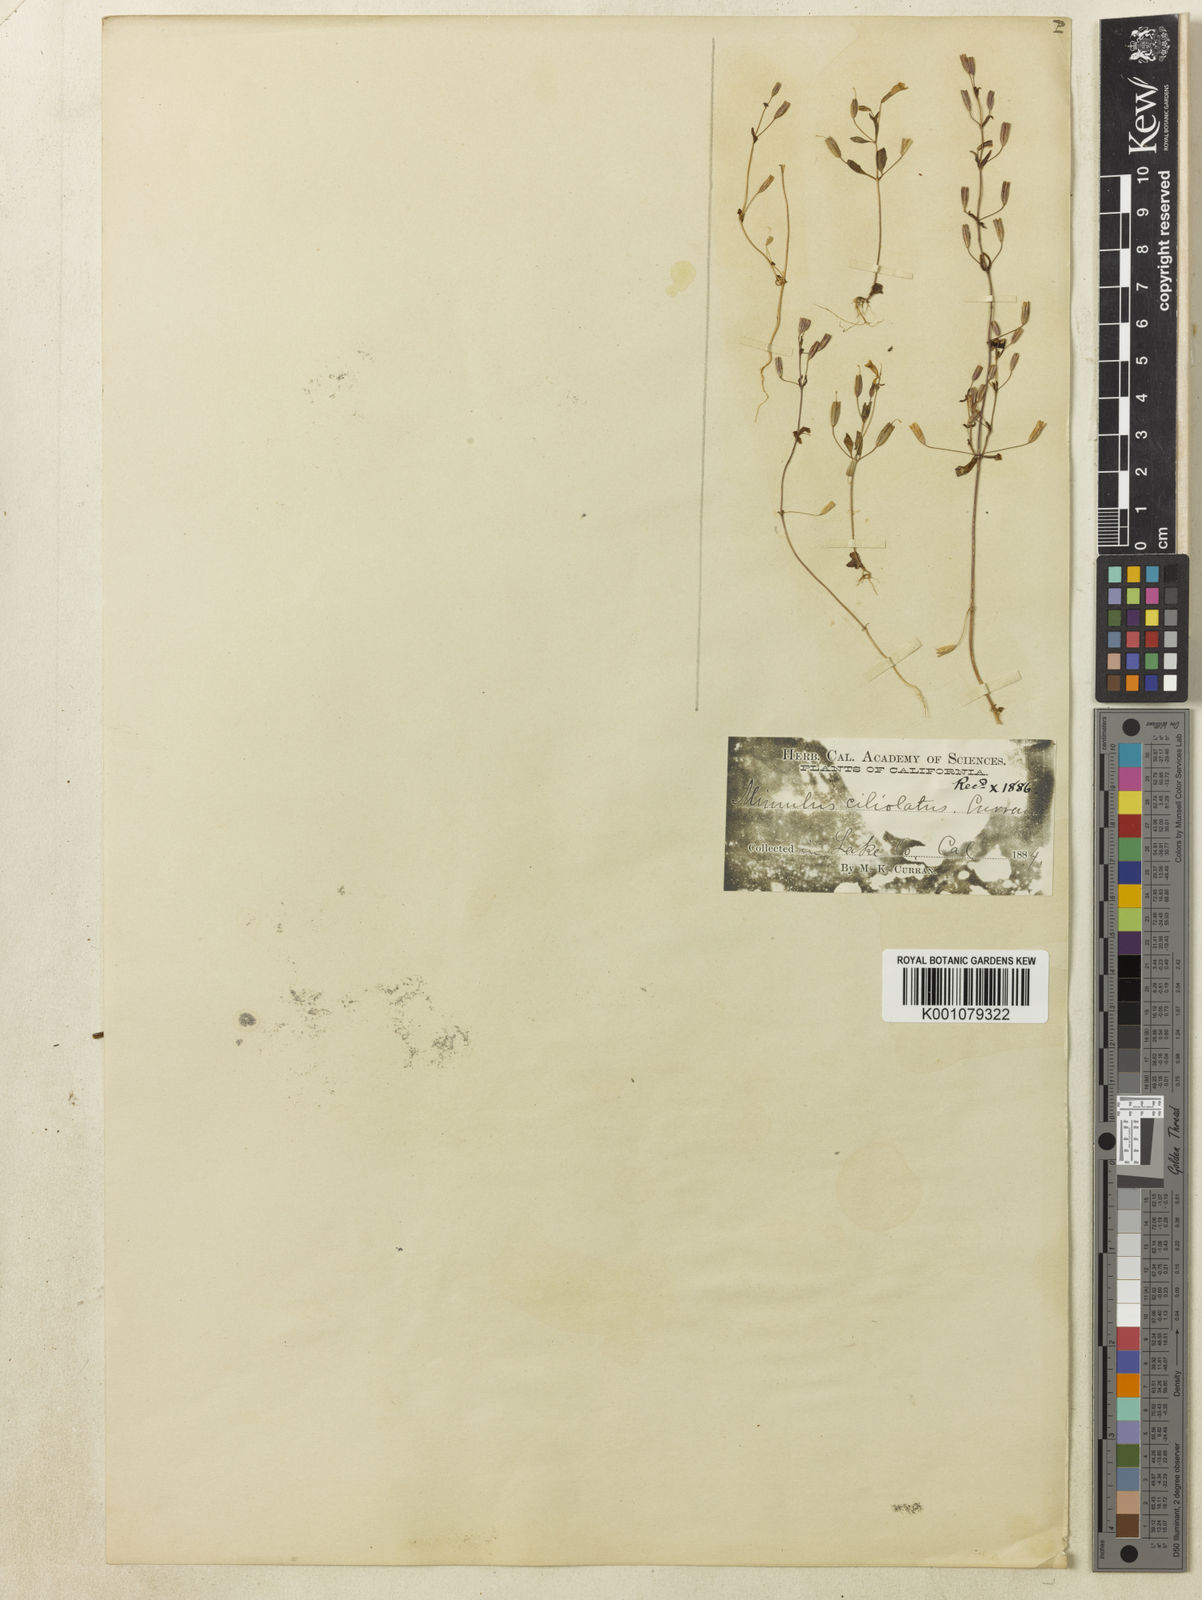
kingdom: Plantae
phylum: Tracheophyta
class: Magnoliopsida
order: Lamiales
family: Phrymaceae
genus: Mimulus
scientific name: Mimulus
